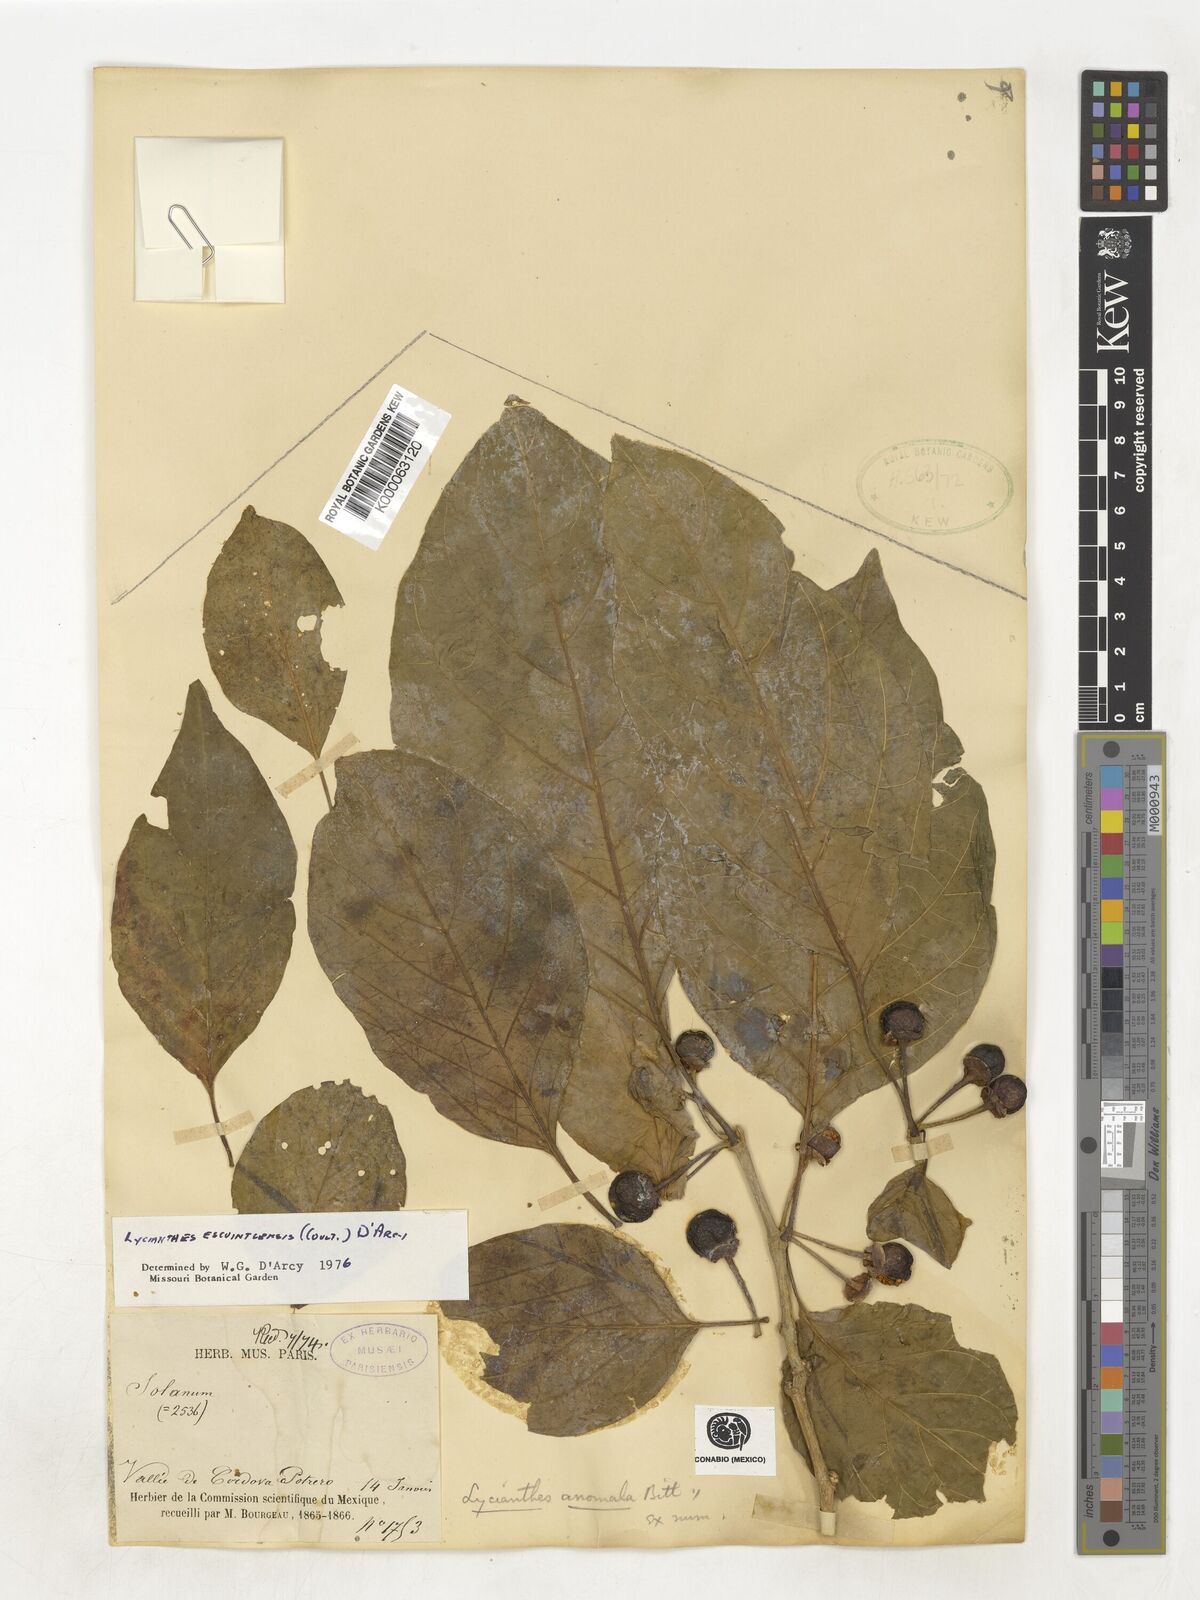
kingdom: Plantae
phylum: Tracheophyta
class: Magnoliopsida
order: Solanales
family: Solanaceae
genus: Lycianthes
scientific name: Lycianthes heteroclita
